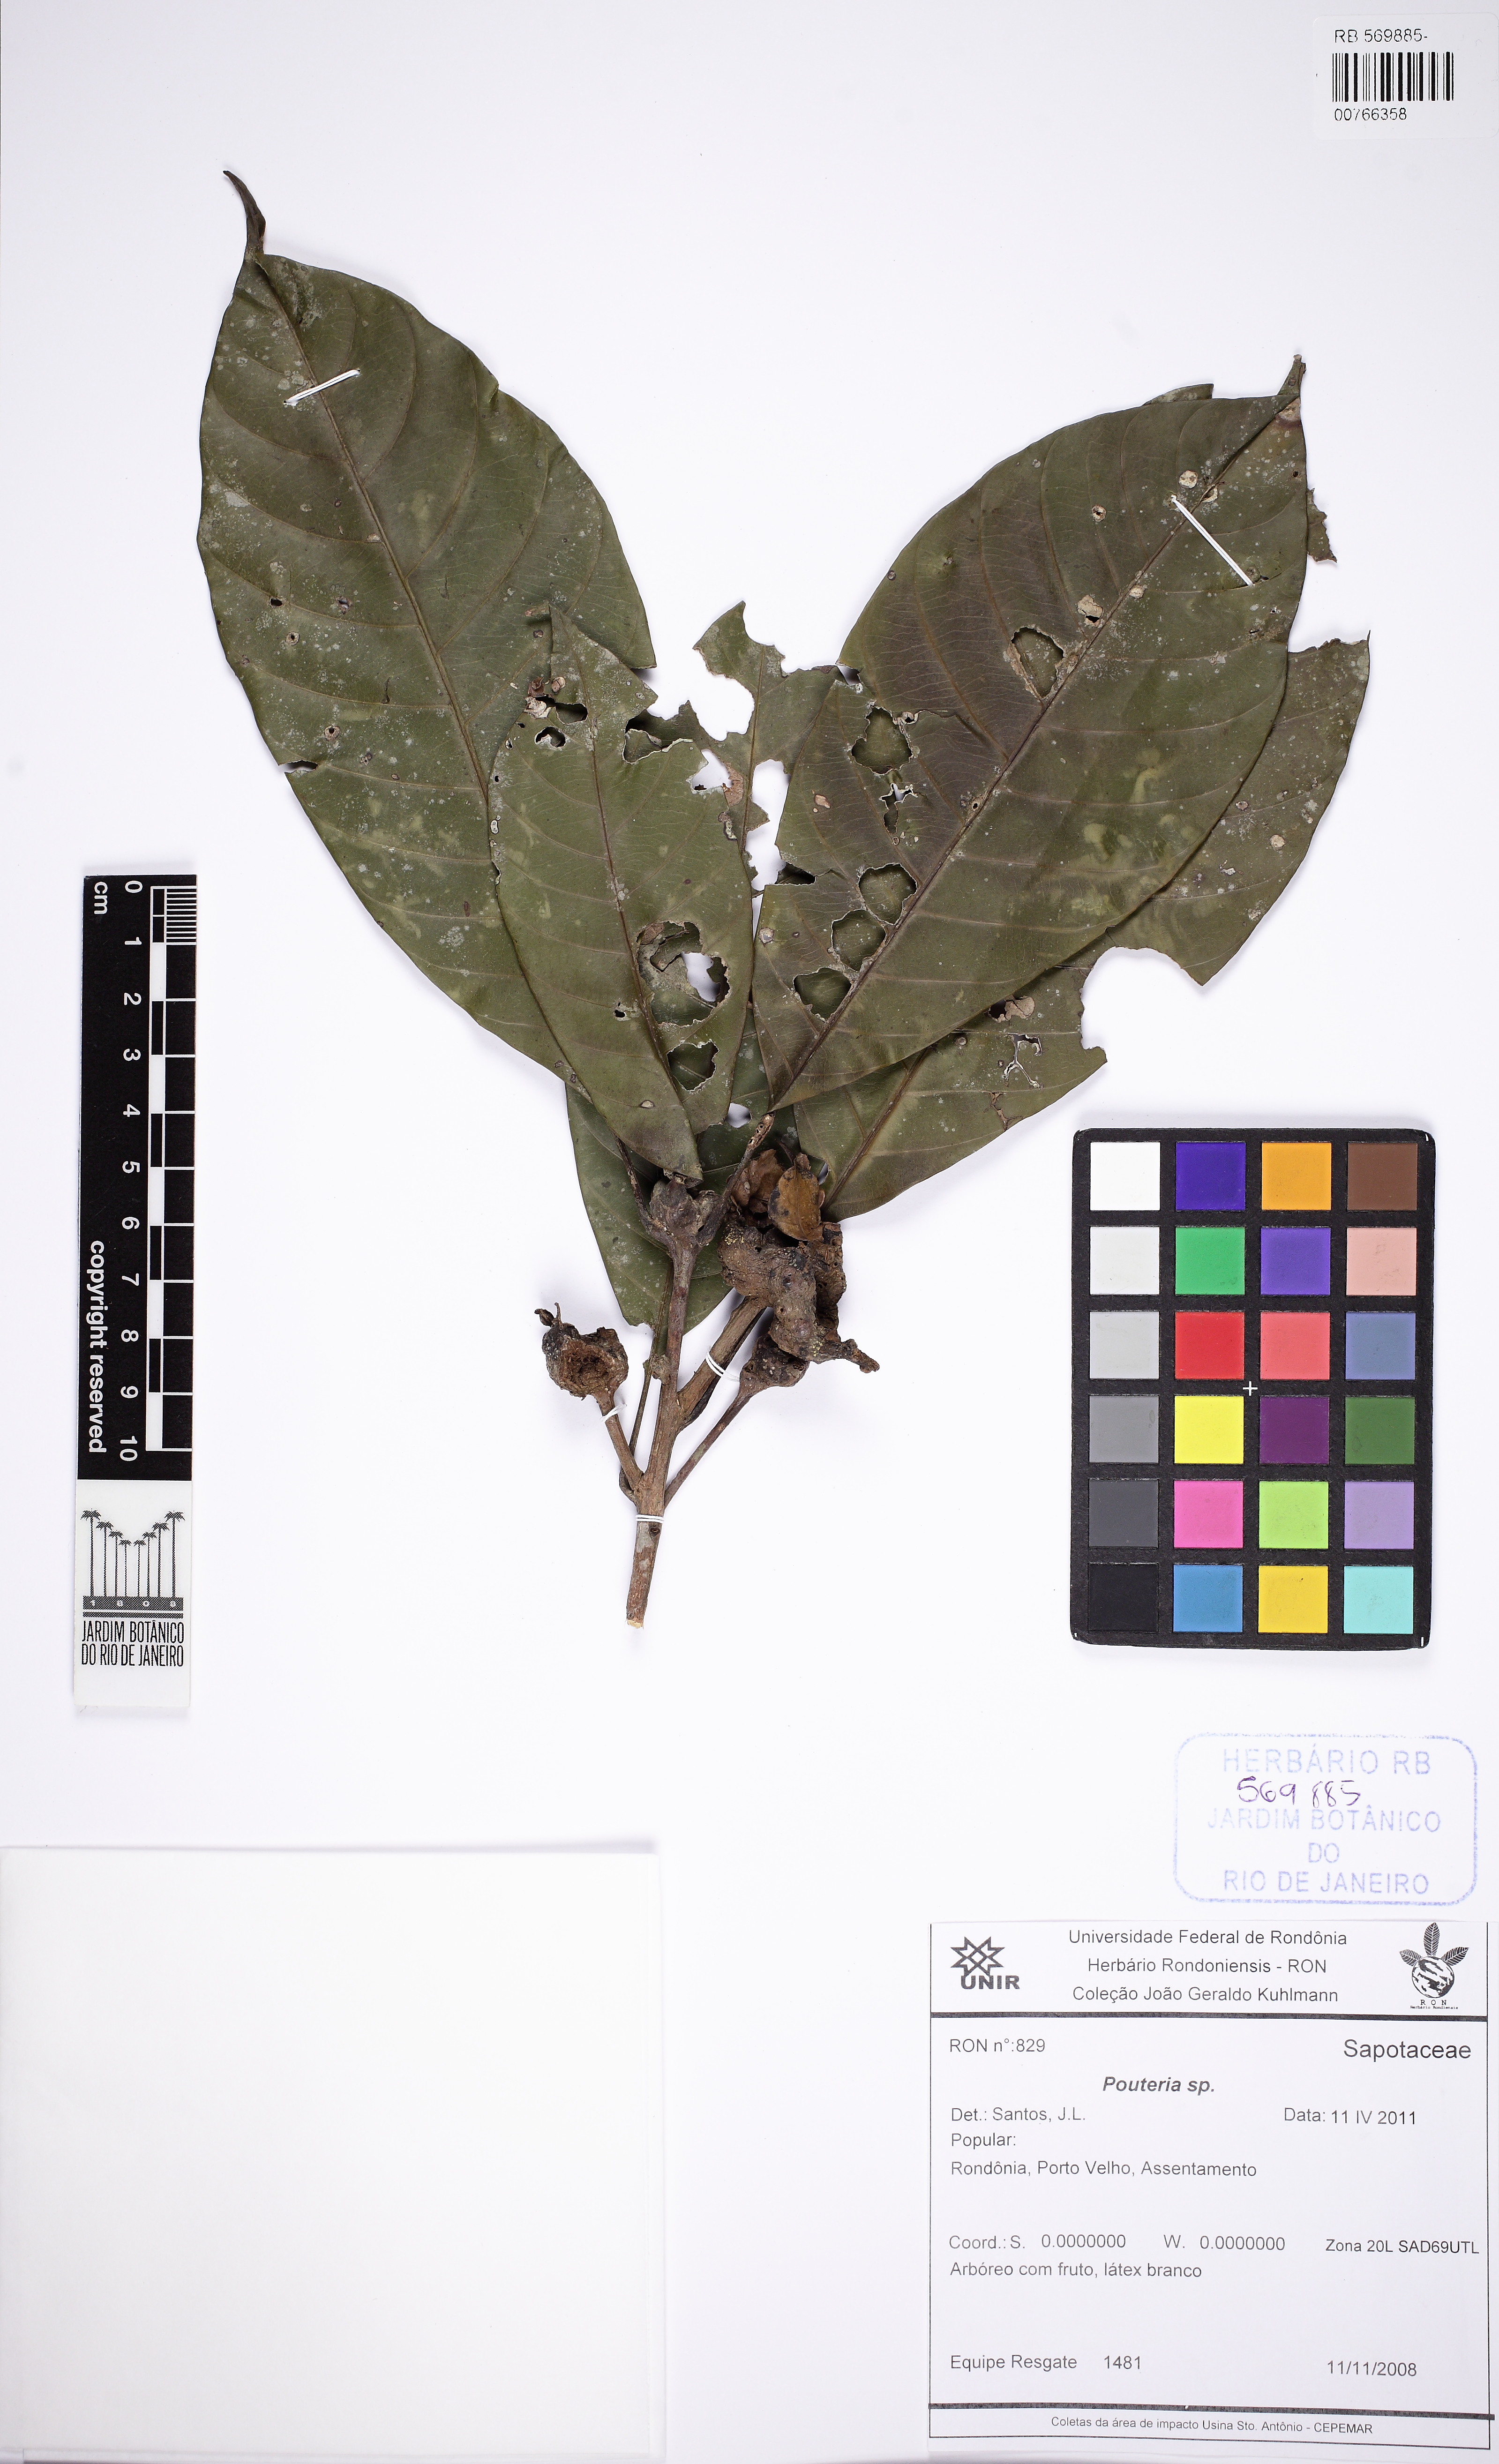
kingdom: Plantae
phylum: Tracheophyta
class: Magnoliopsida
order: Ericales
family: Sapotaceae
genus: Pouteria
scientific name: Pouteria
